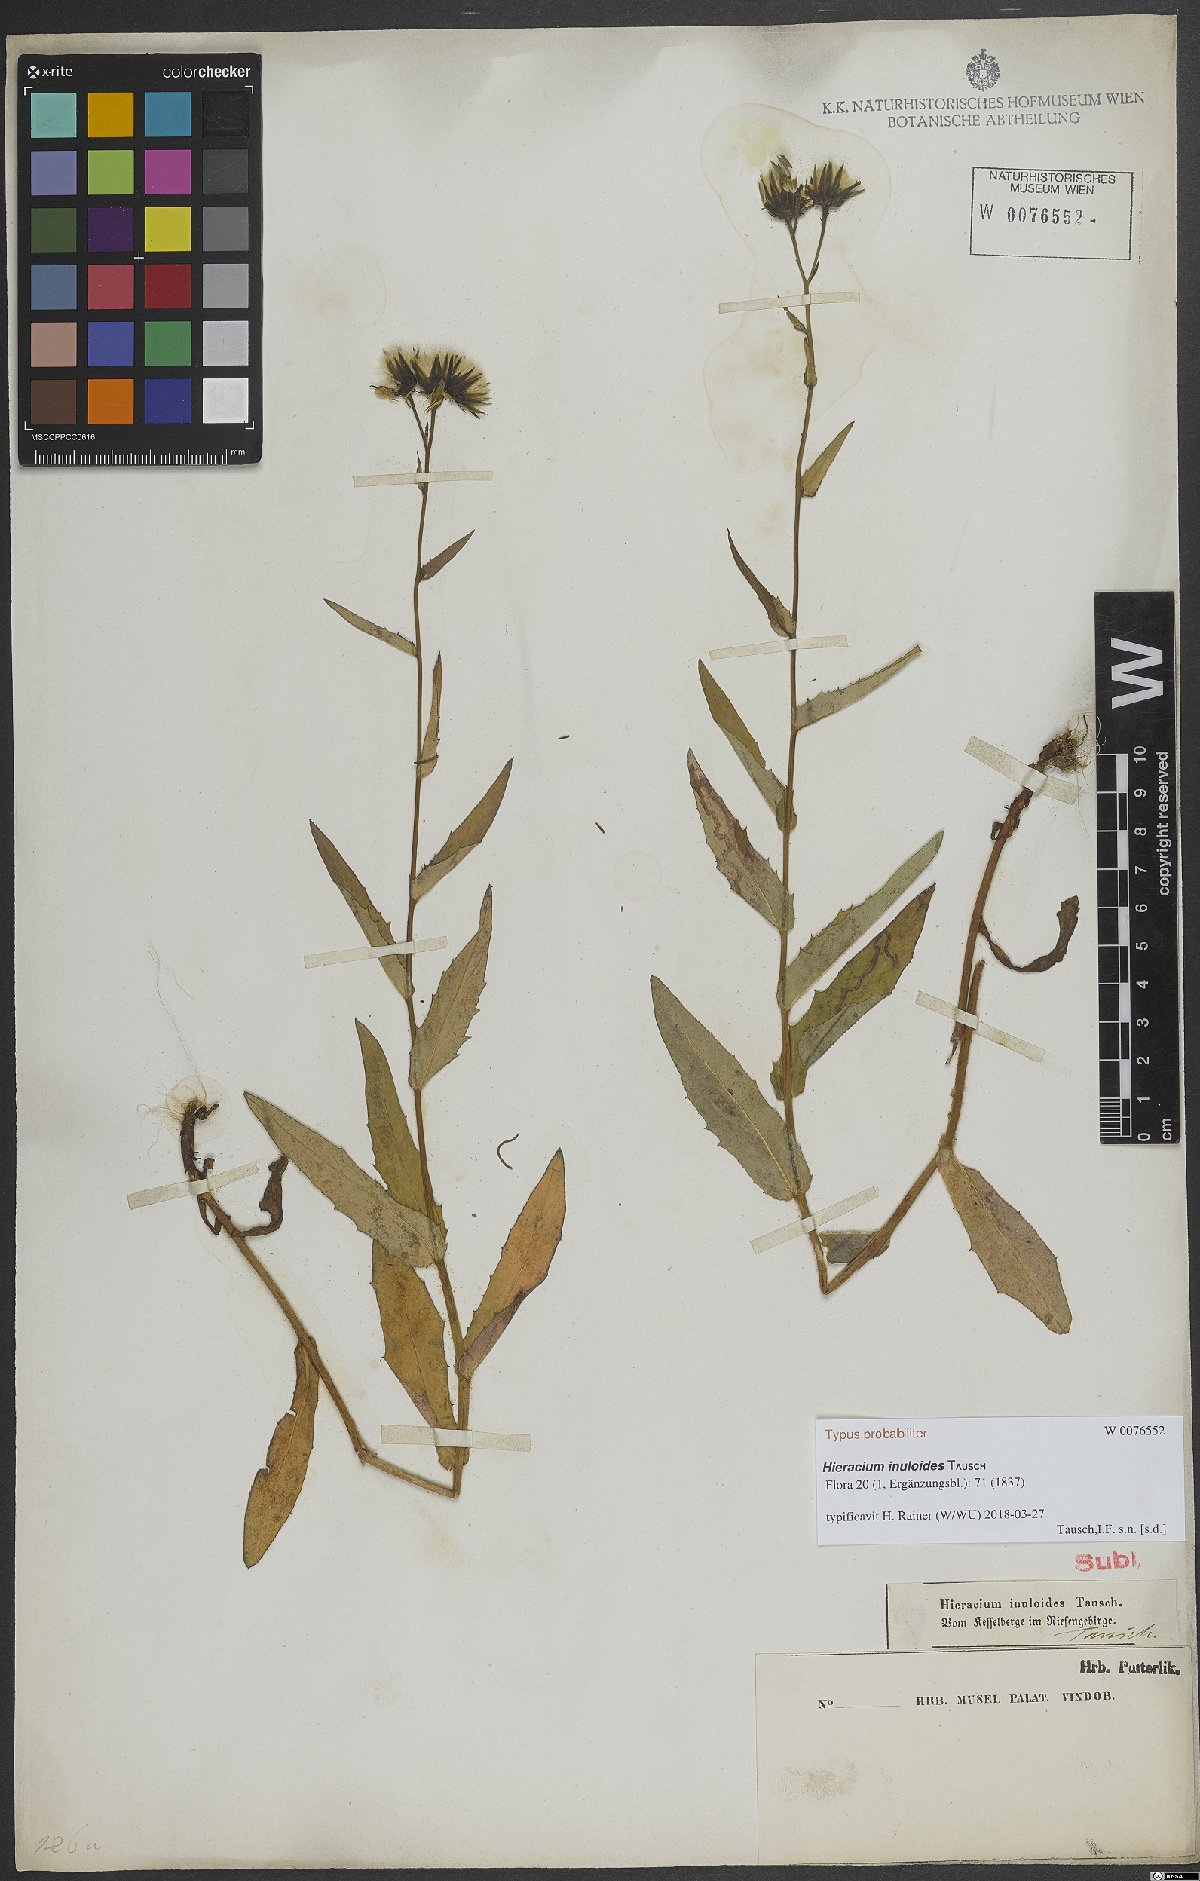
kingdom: Plantae
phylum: Tracheophyta
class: Magnoliopsida
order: Asterales
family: Asteraceae
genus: Hieracium
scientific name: Hieracium inuloides
